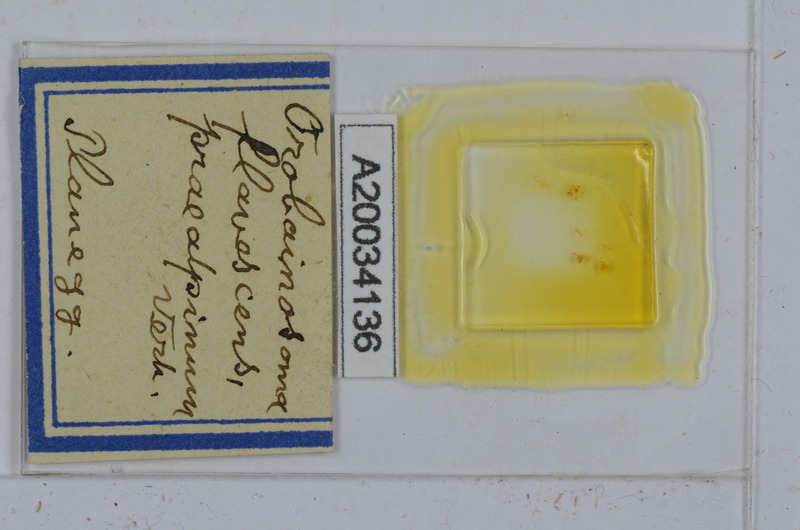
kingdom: Animalia
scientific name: Animalia
